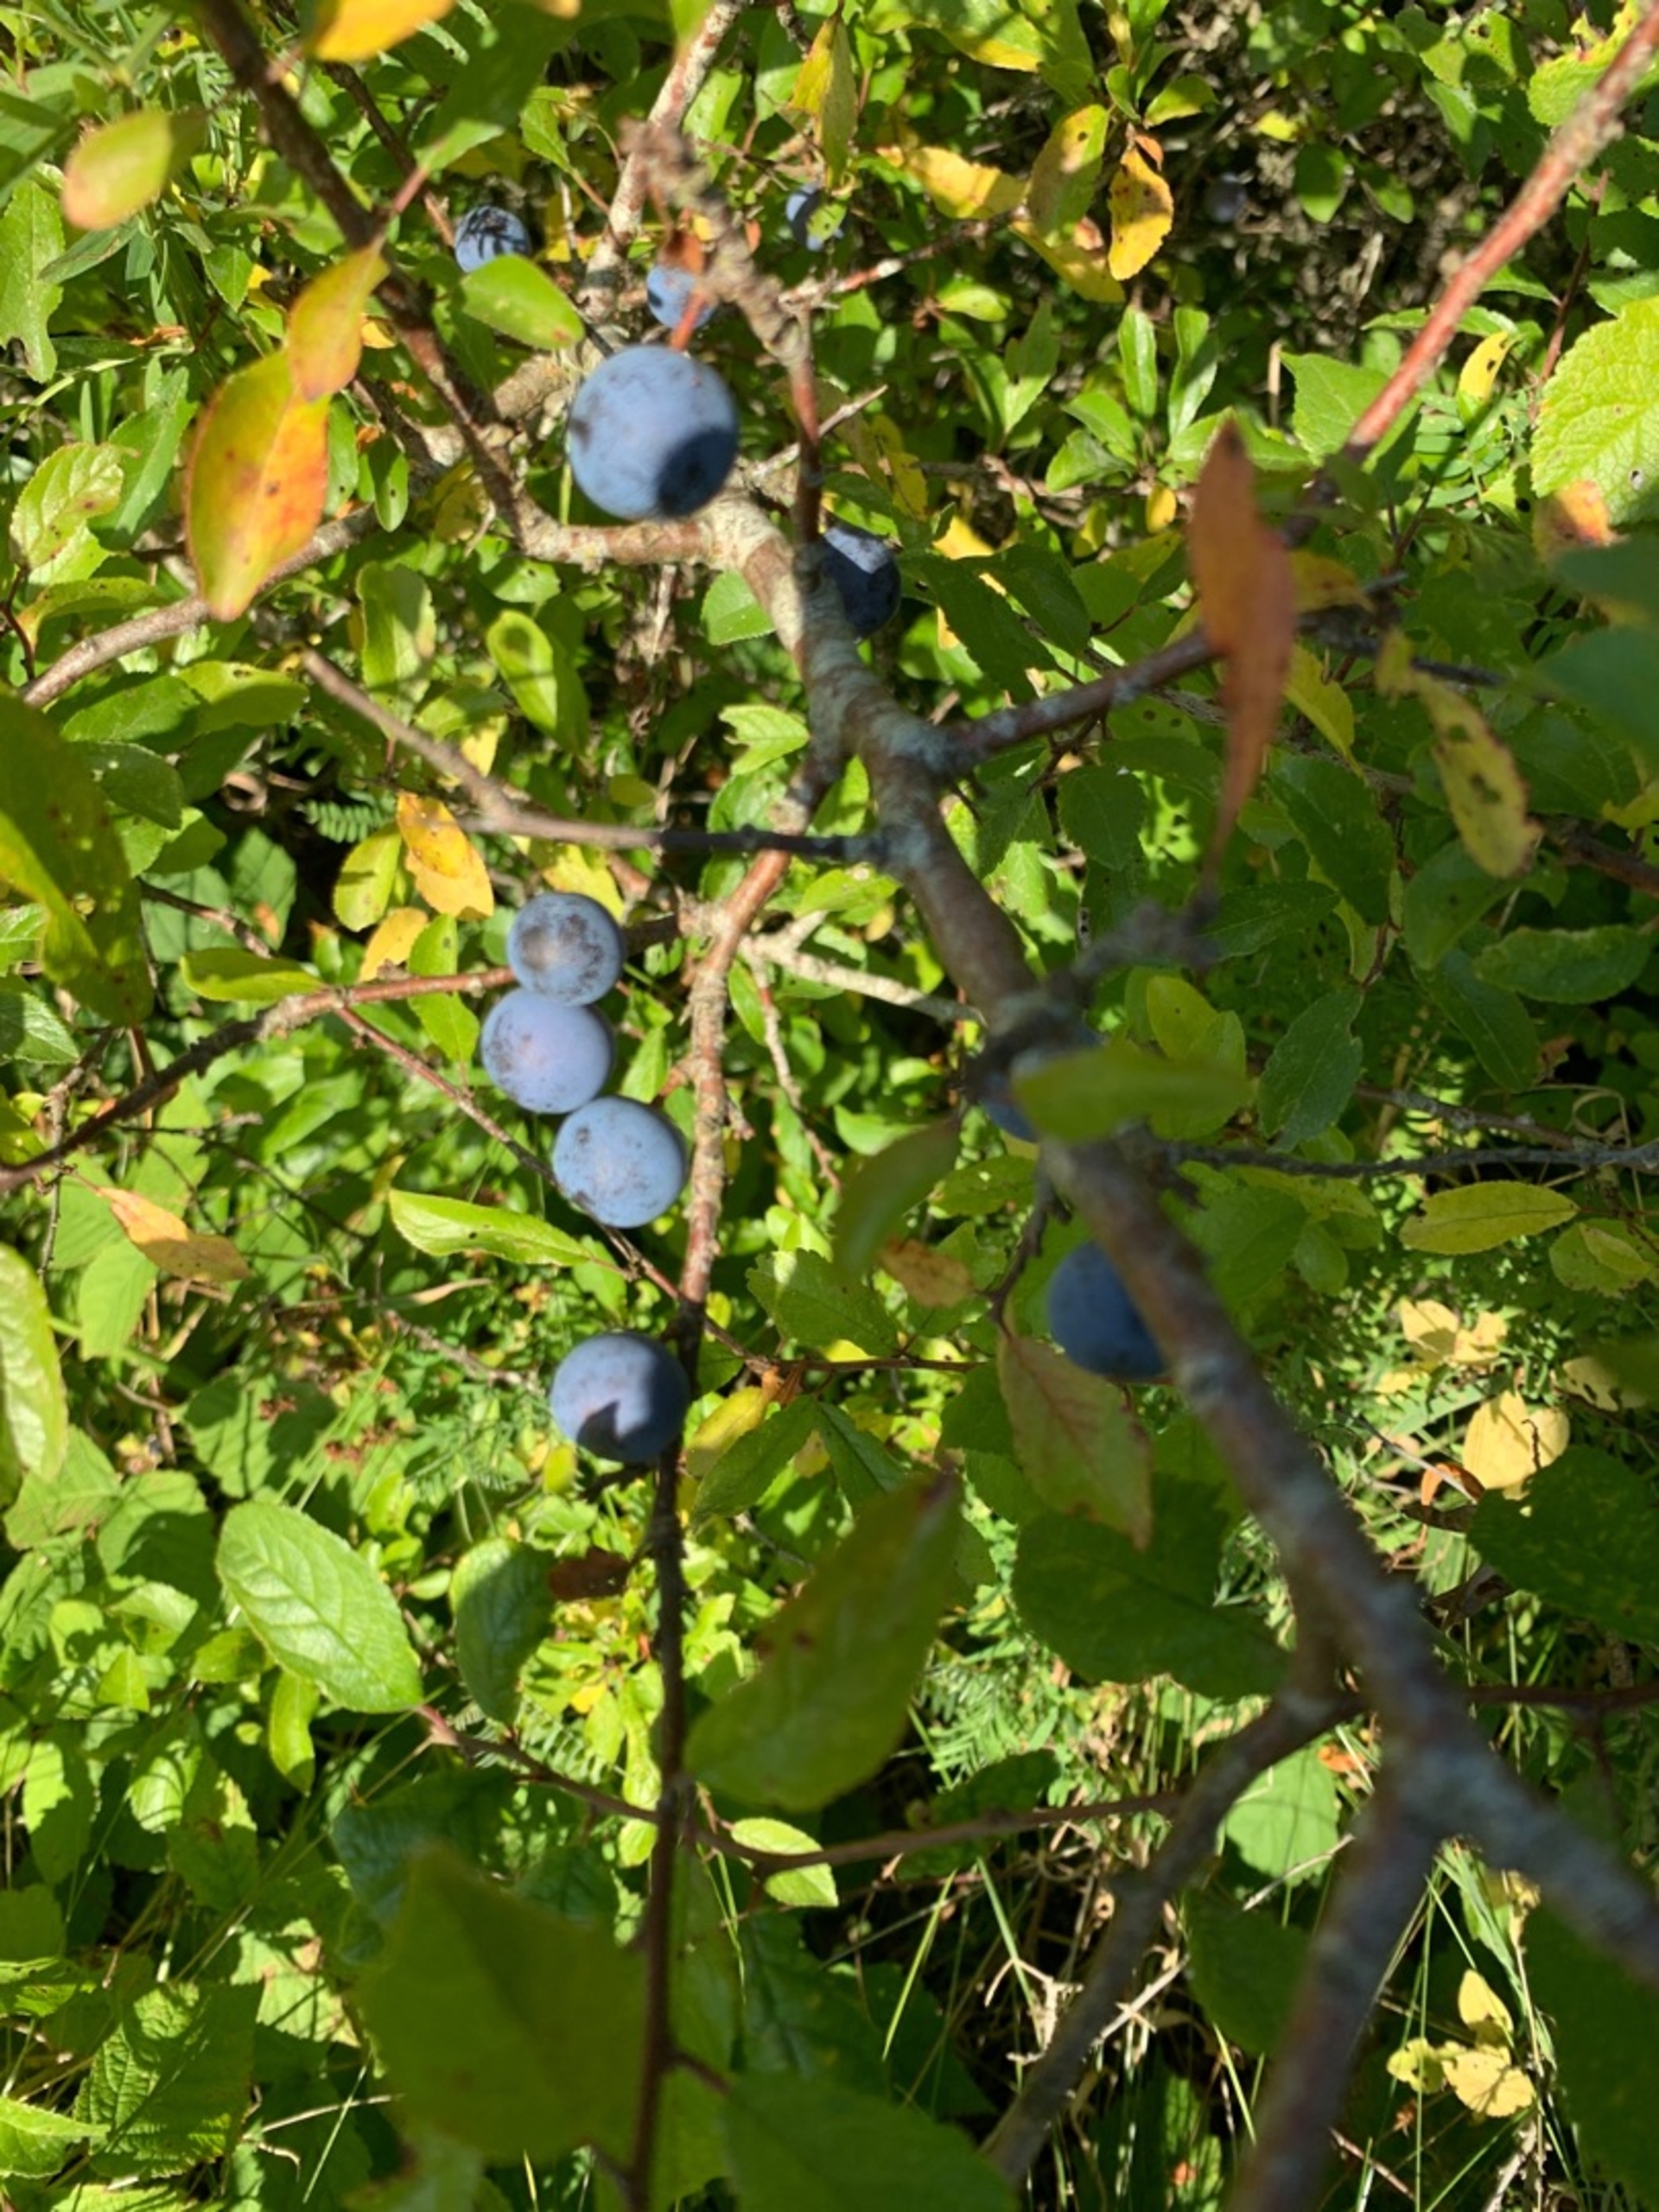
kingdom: Plantae
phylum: Tracheophyta
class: Magnoliopsida
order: Rosales
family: Rosaceae
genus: Prunus
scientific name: Prunus spinosa
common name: Slåen
